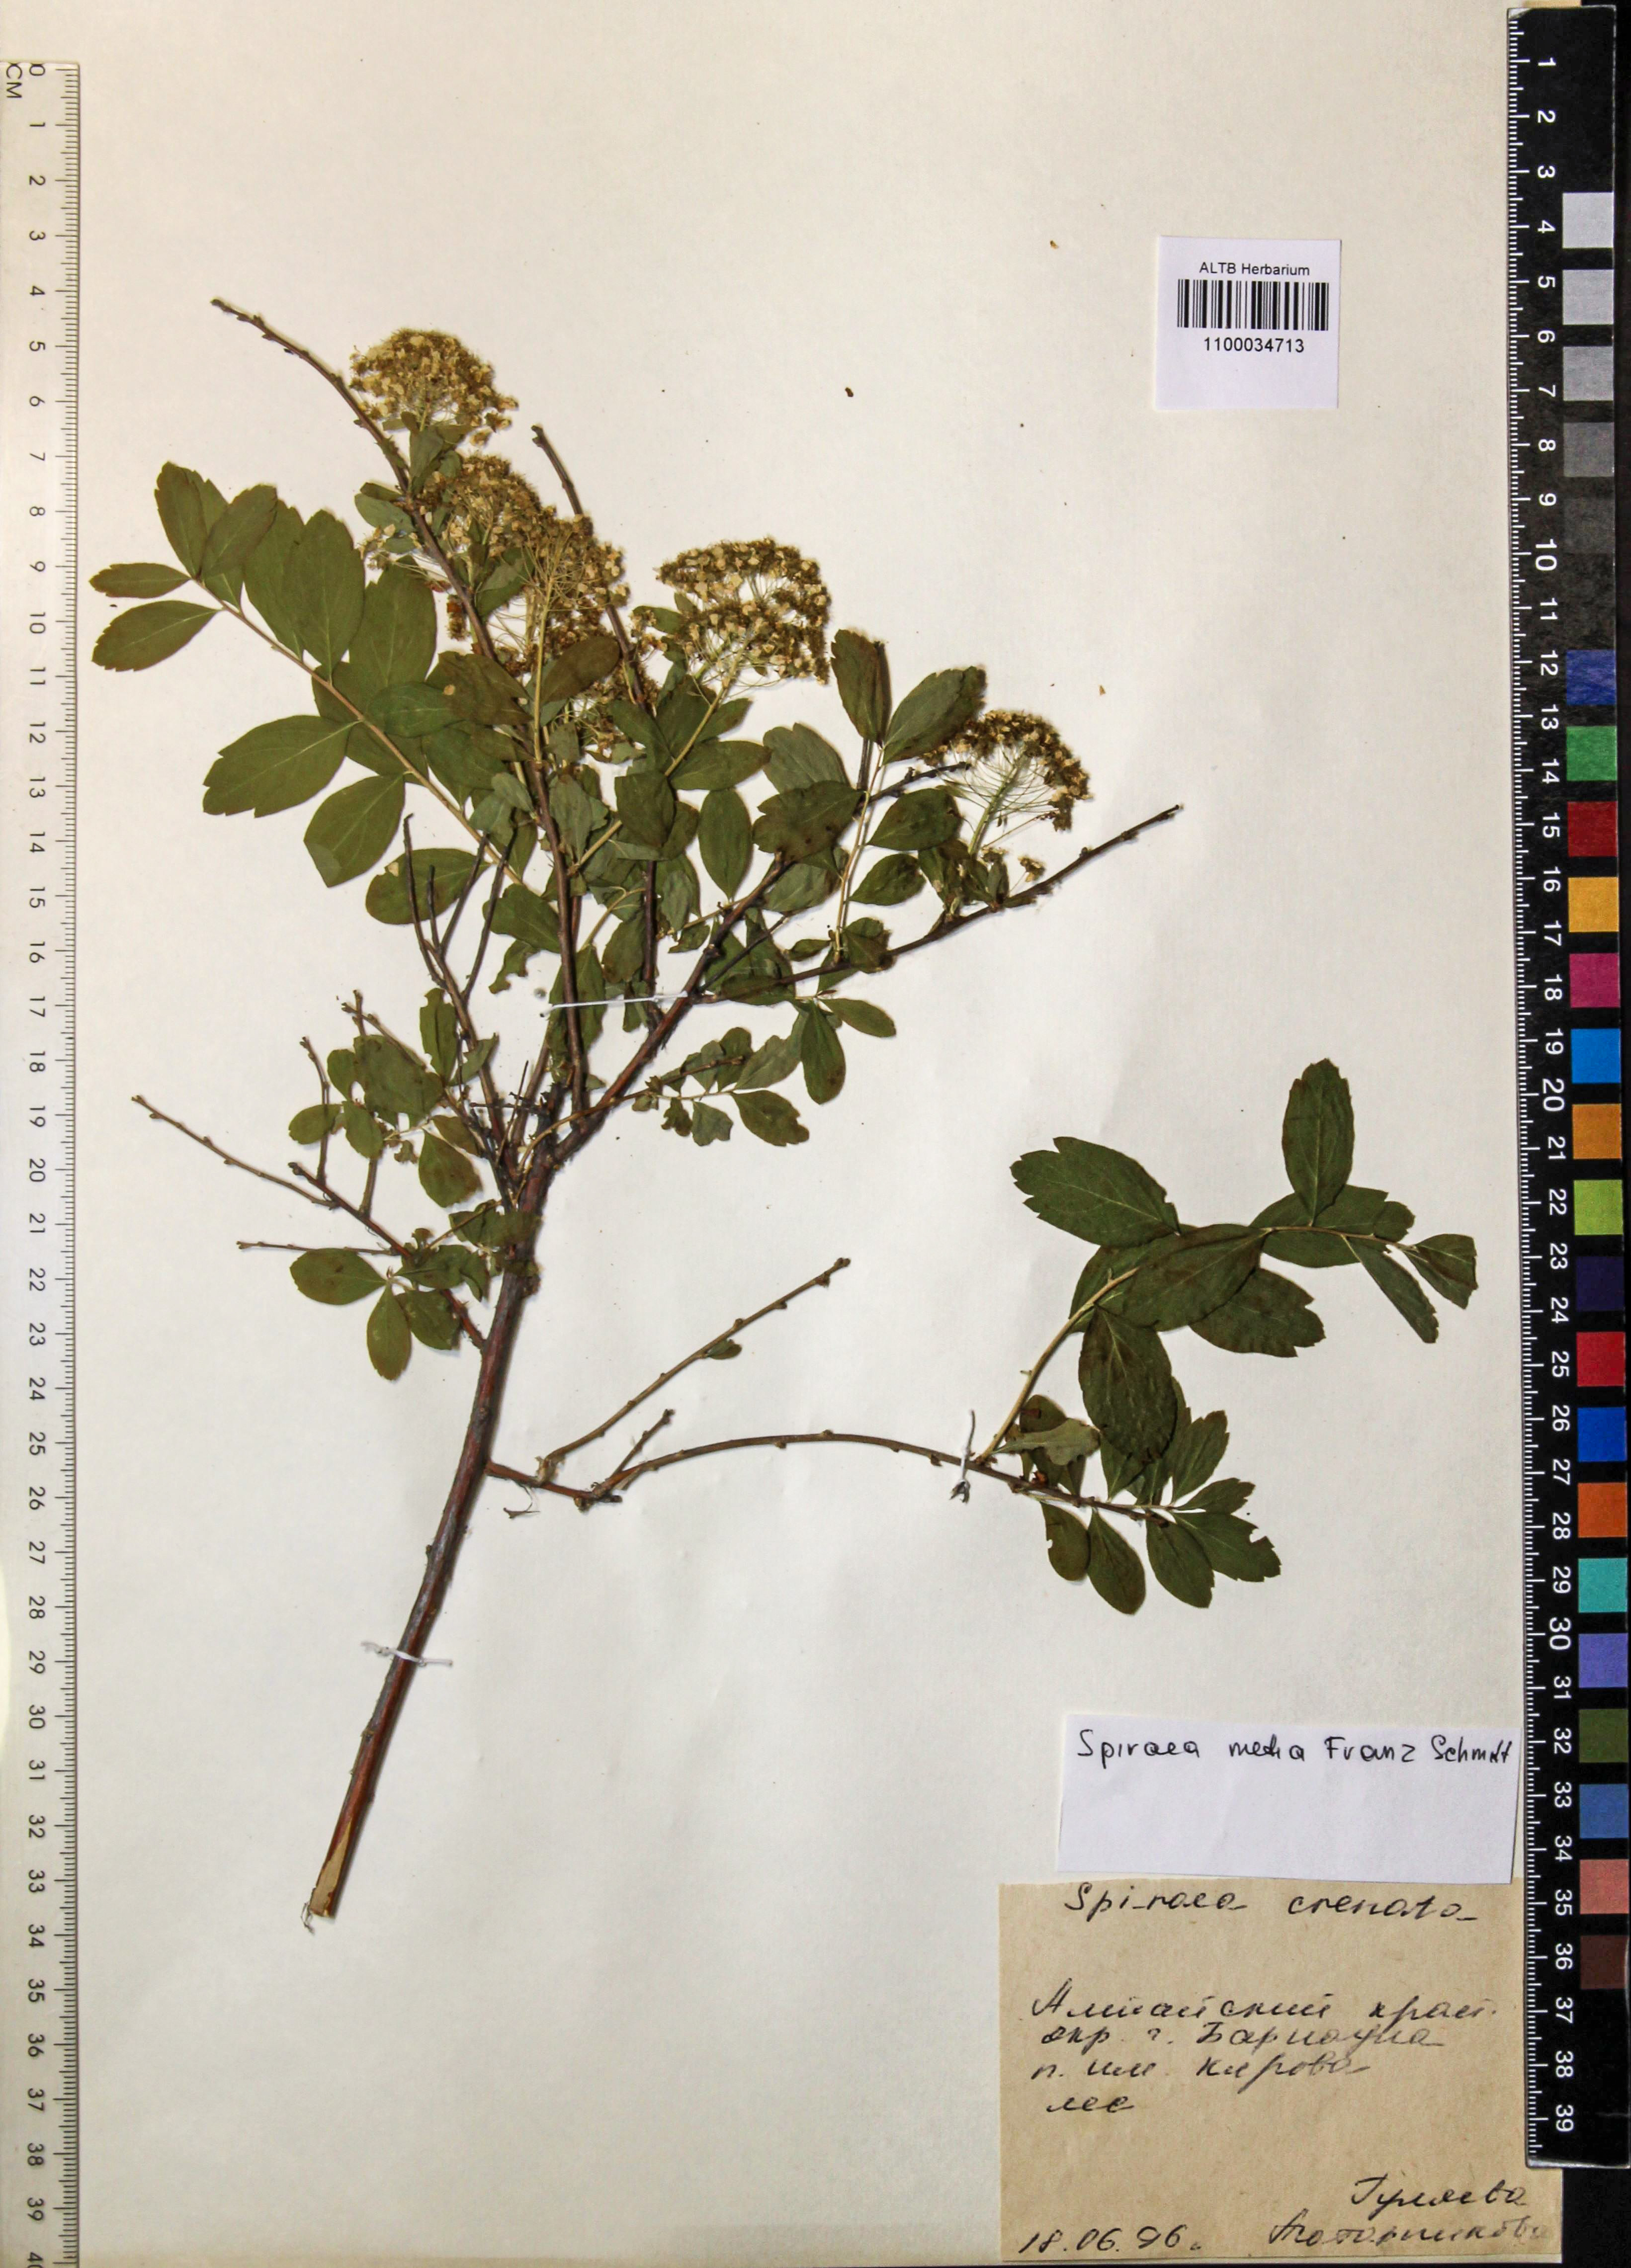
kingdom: Plantae
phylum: Tracheophyta
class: Magnoliopsida
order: Rosales
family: Rosaceae
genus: Spiraea
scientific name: Spiraea media
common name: Russian spiraea
